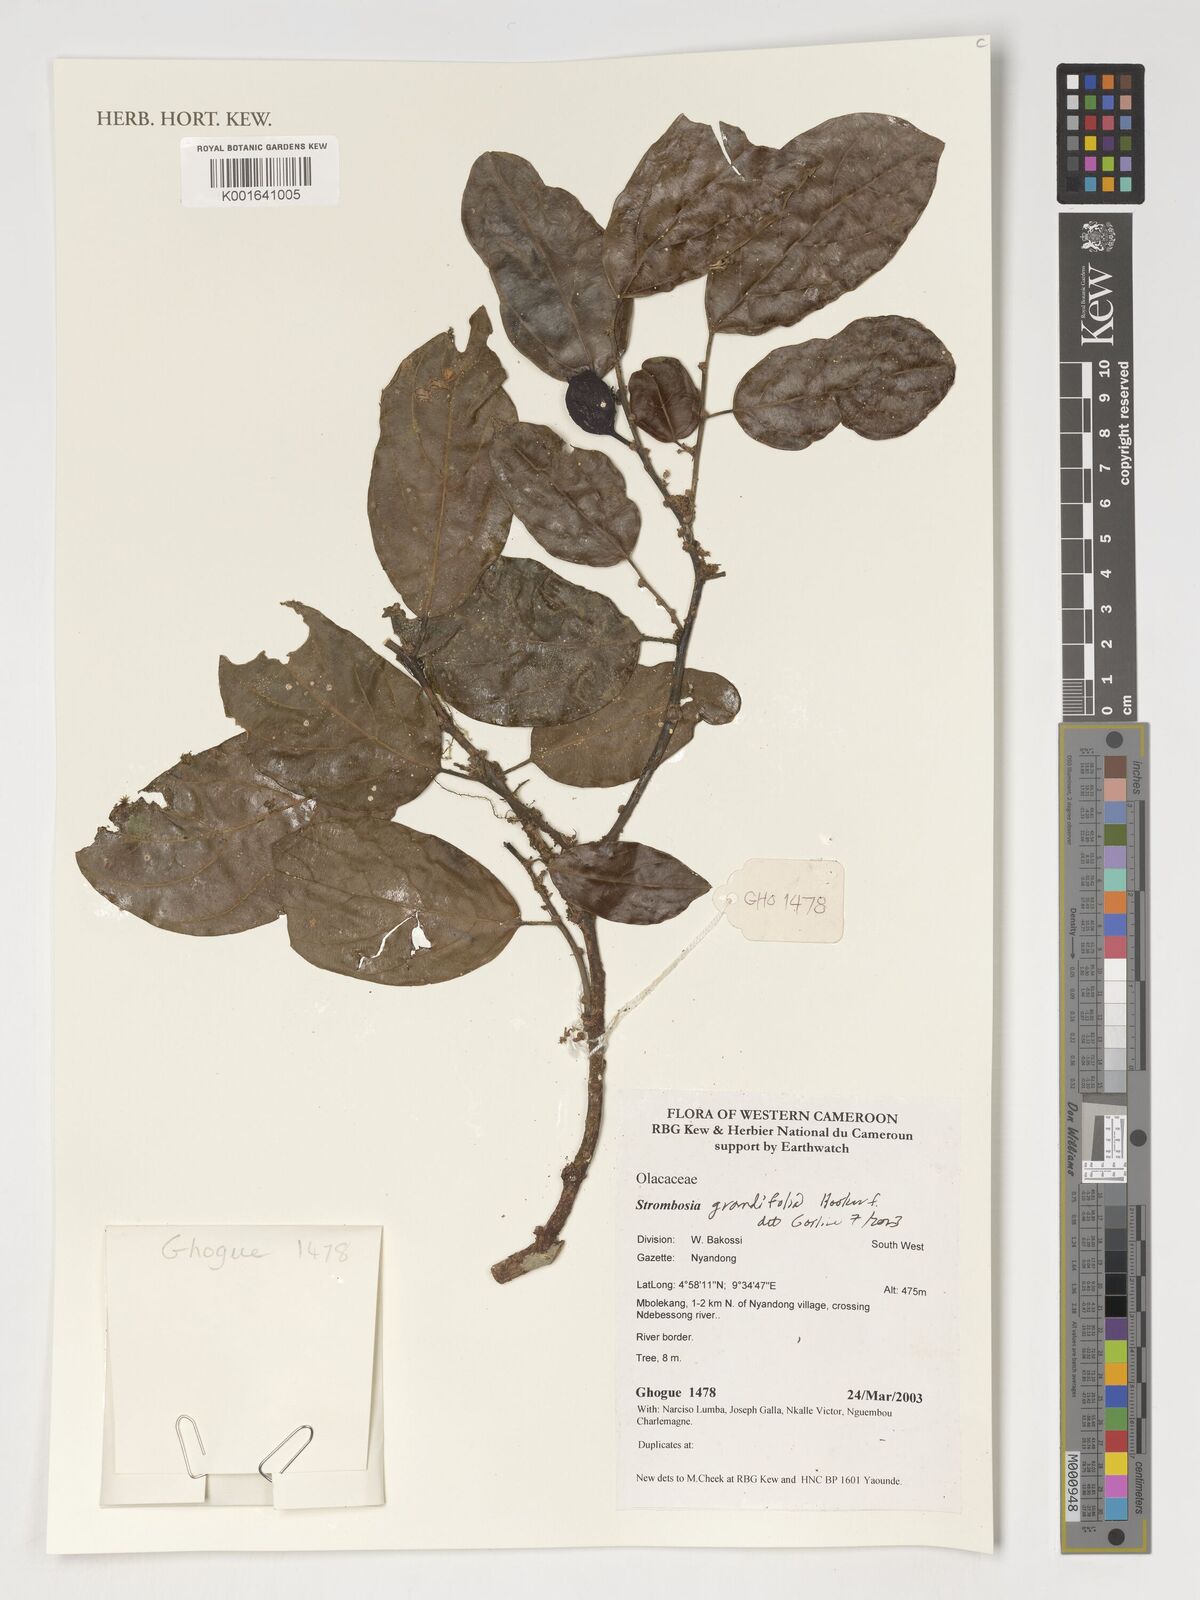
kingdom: Plantae
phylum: Tracheophyta
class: Magnoliopsida
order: Santalales
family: Strombosiaceae
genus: Strombosia
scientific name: Strombosia grandifolia
